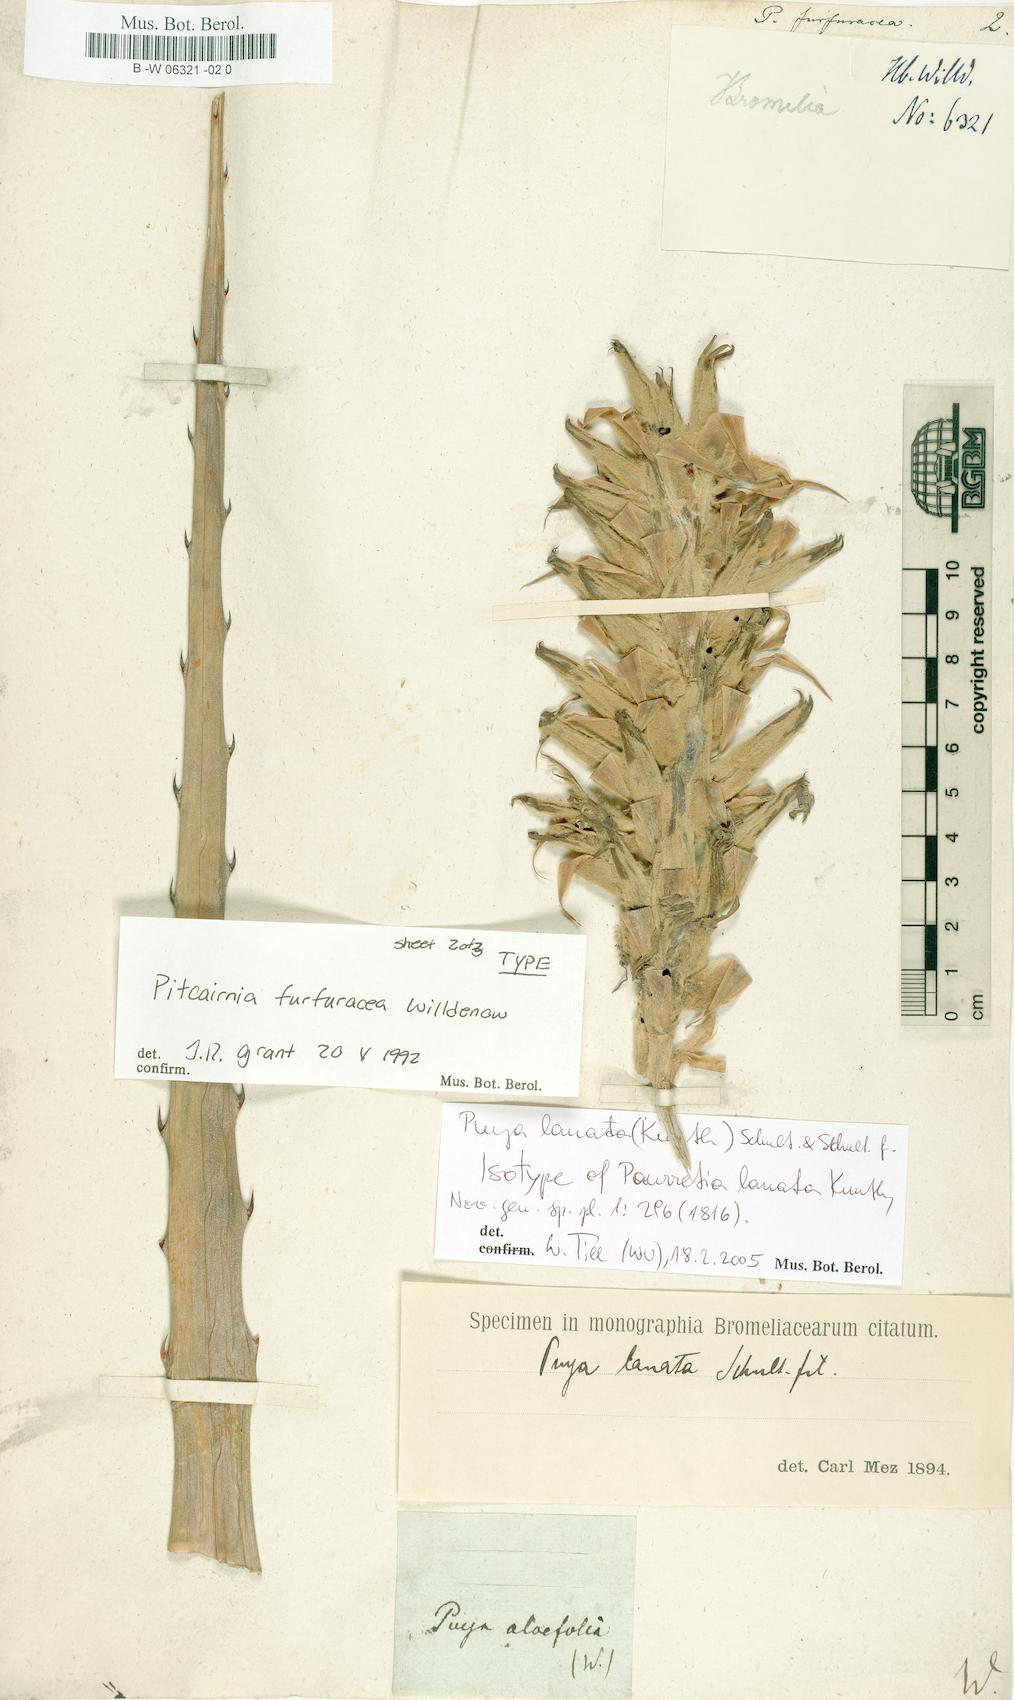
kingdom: Plantae
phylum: Tracheophyta
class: Liliopsida
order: Poales
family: Bromeliaceae
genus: Puya
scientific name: Puya furfuracea
